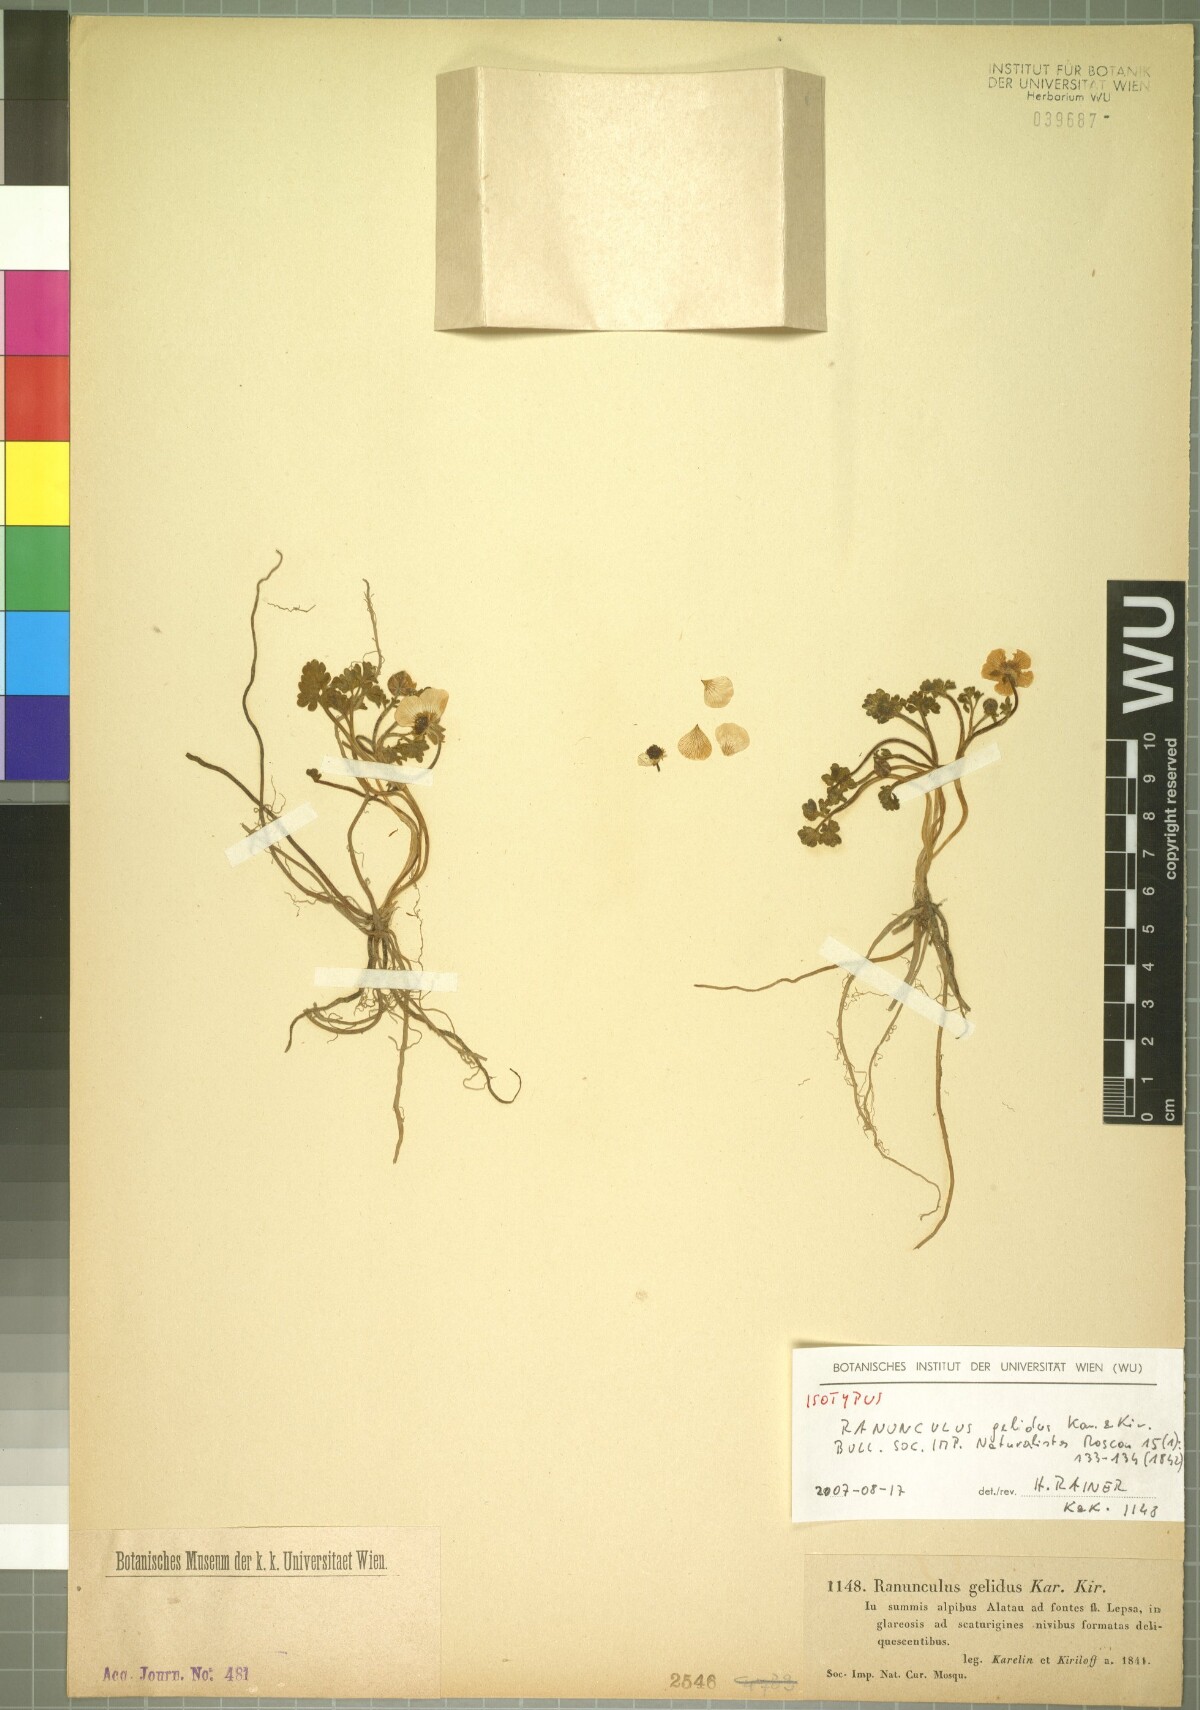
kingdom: Plantae
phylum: Tracheophyta
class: Magnoliopsida
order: Ranunculales
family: Ranunculaceae
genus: Ranunculus
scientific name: Ranunculus karelinii
